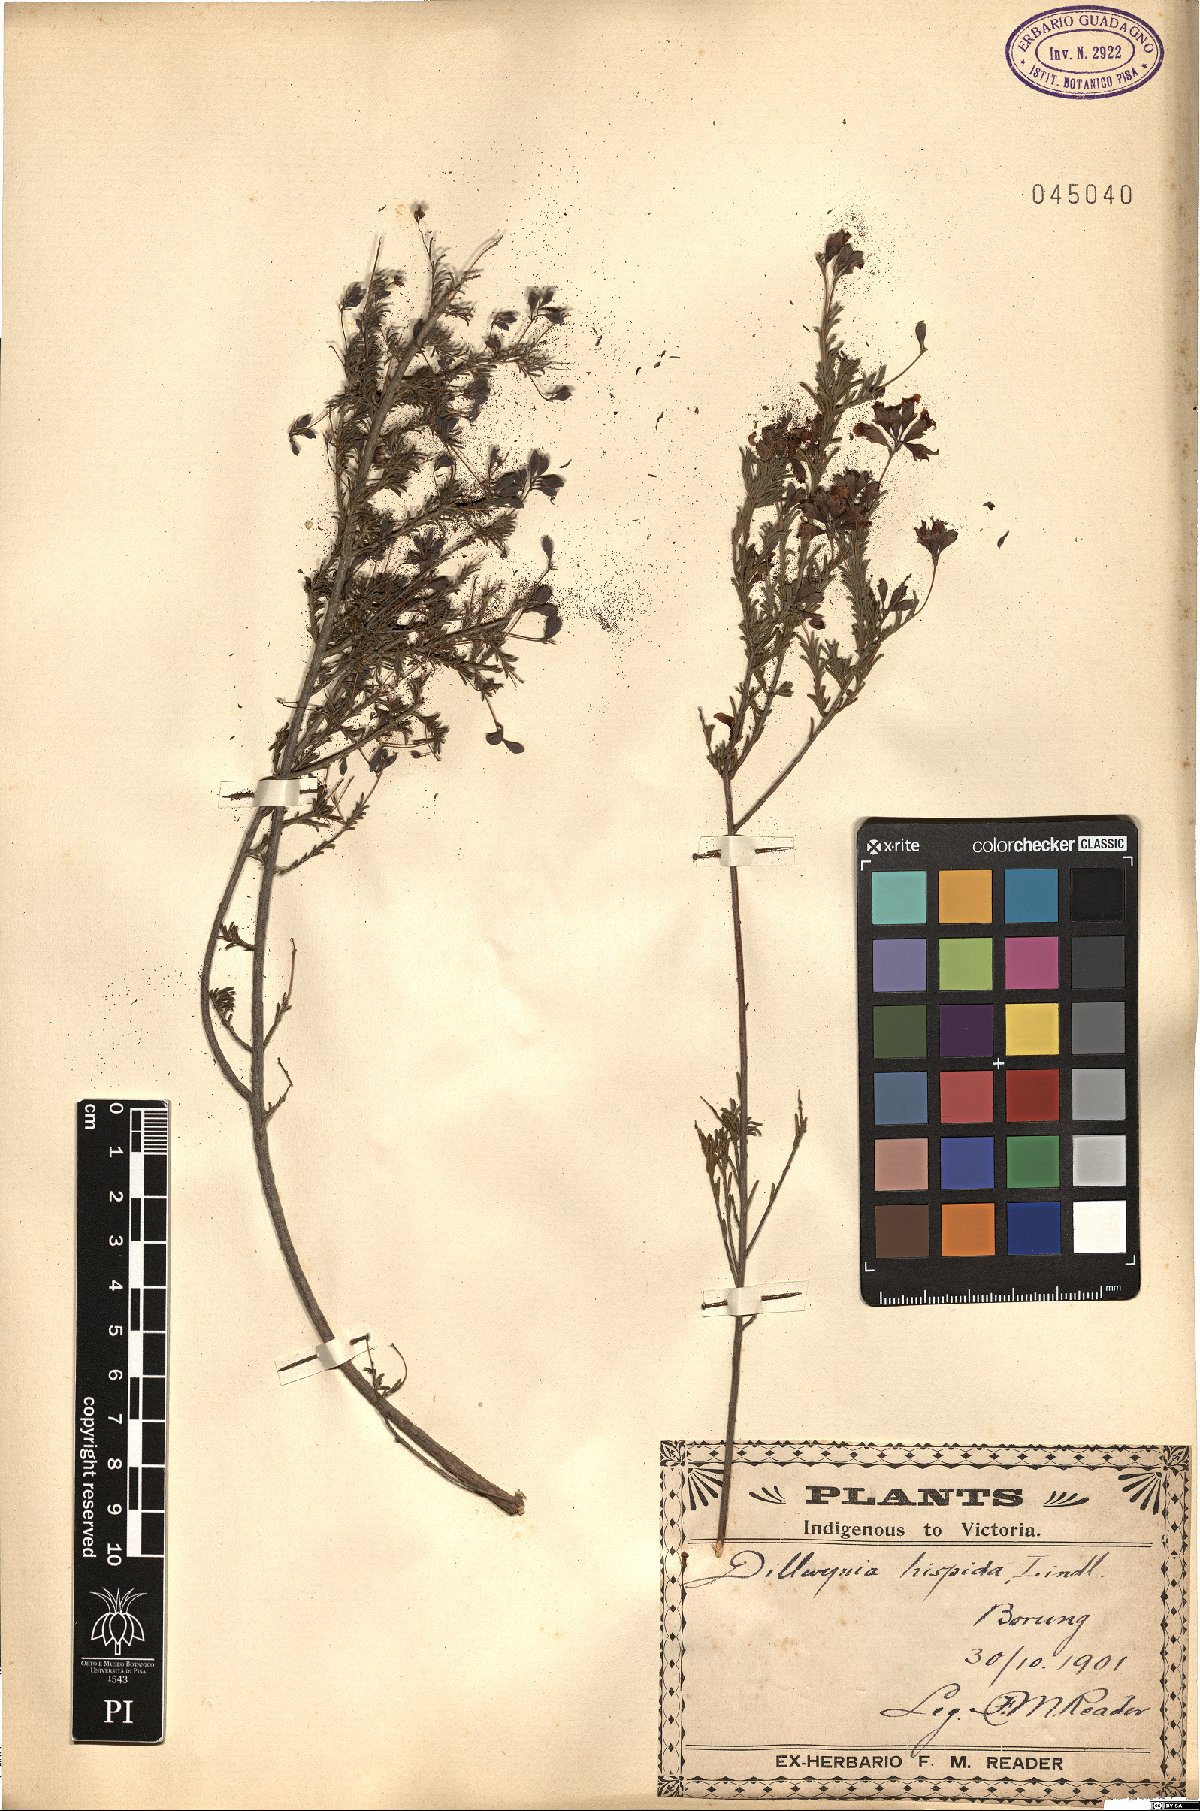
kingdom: Plantae
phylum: Tracheophyta
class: Magnoliopsida
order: Fabales
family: Fabaceae
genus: Dillwynia
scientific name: Dillwynia hispida
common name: Red parrot-pea
